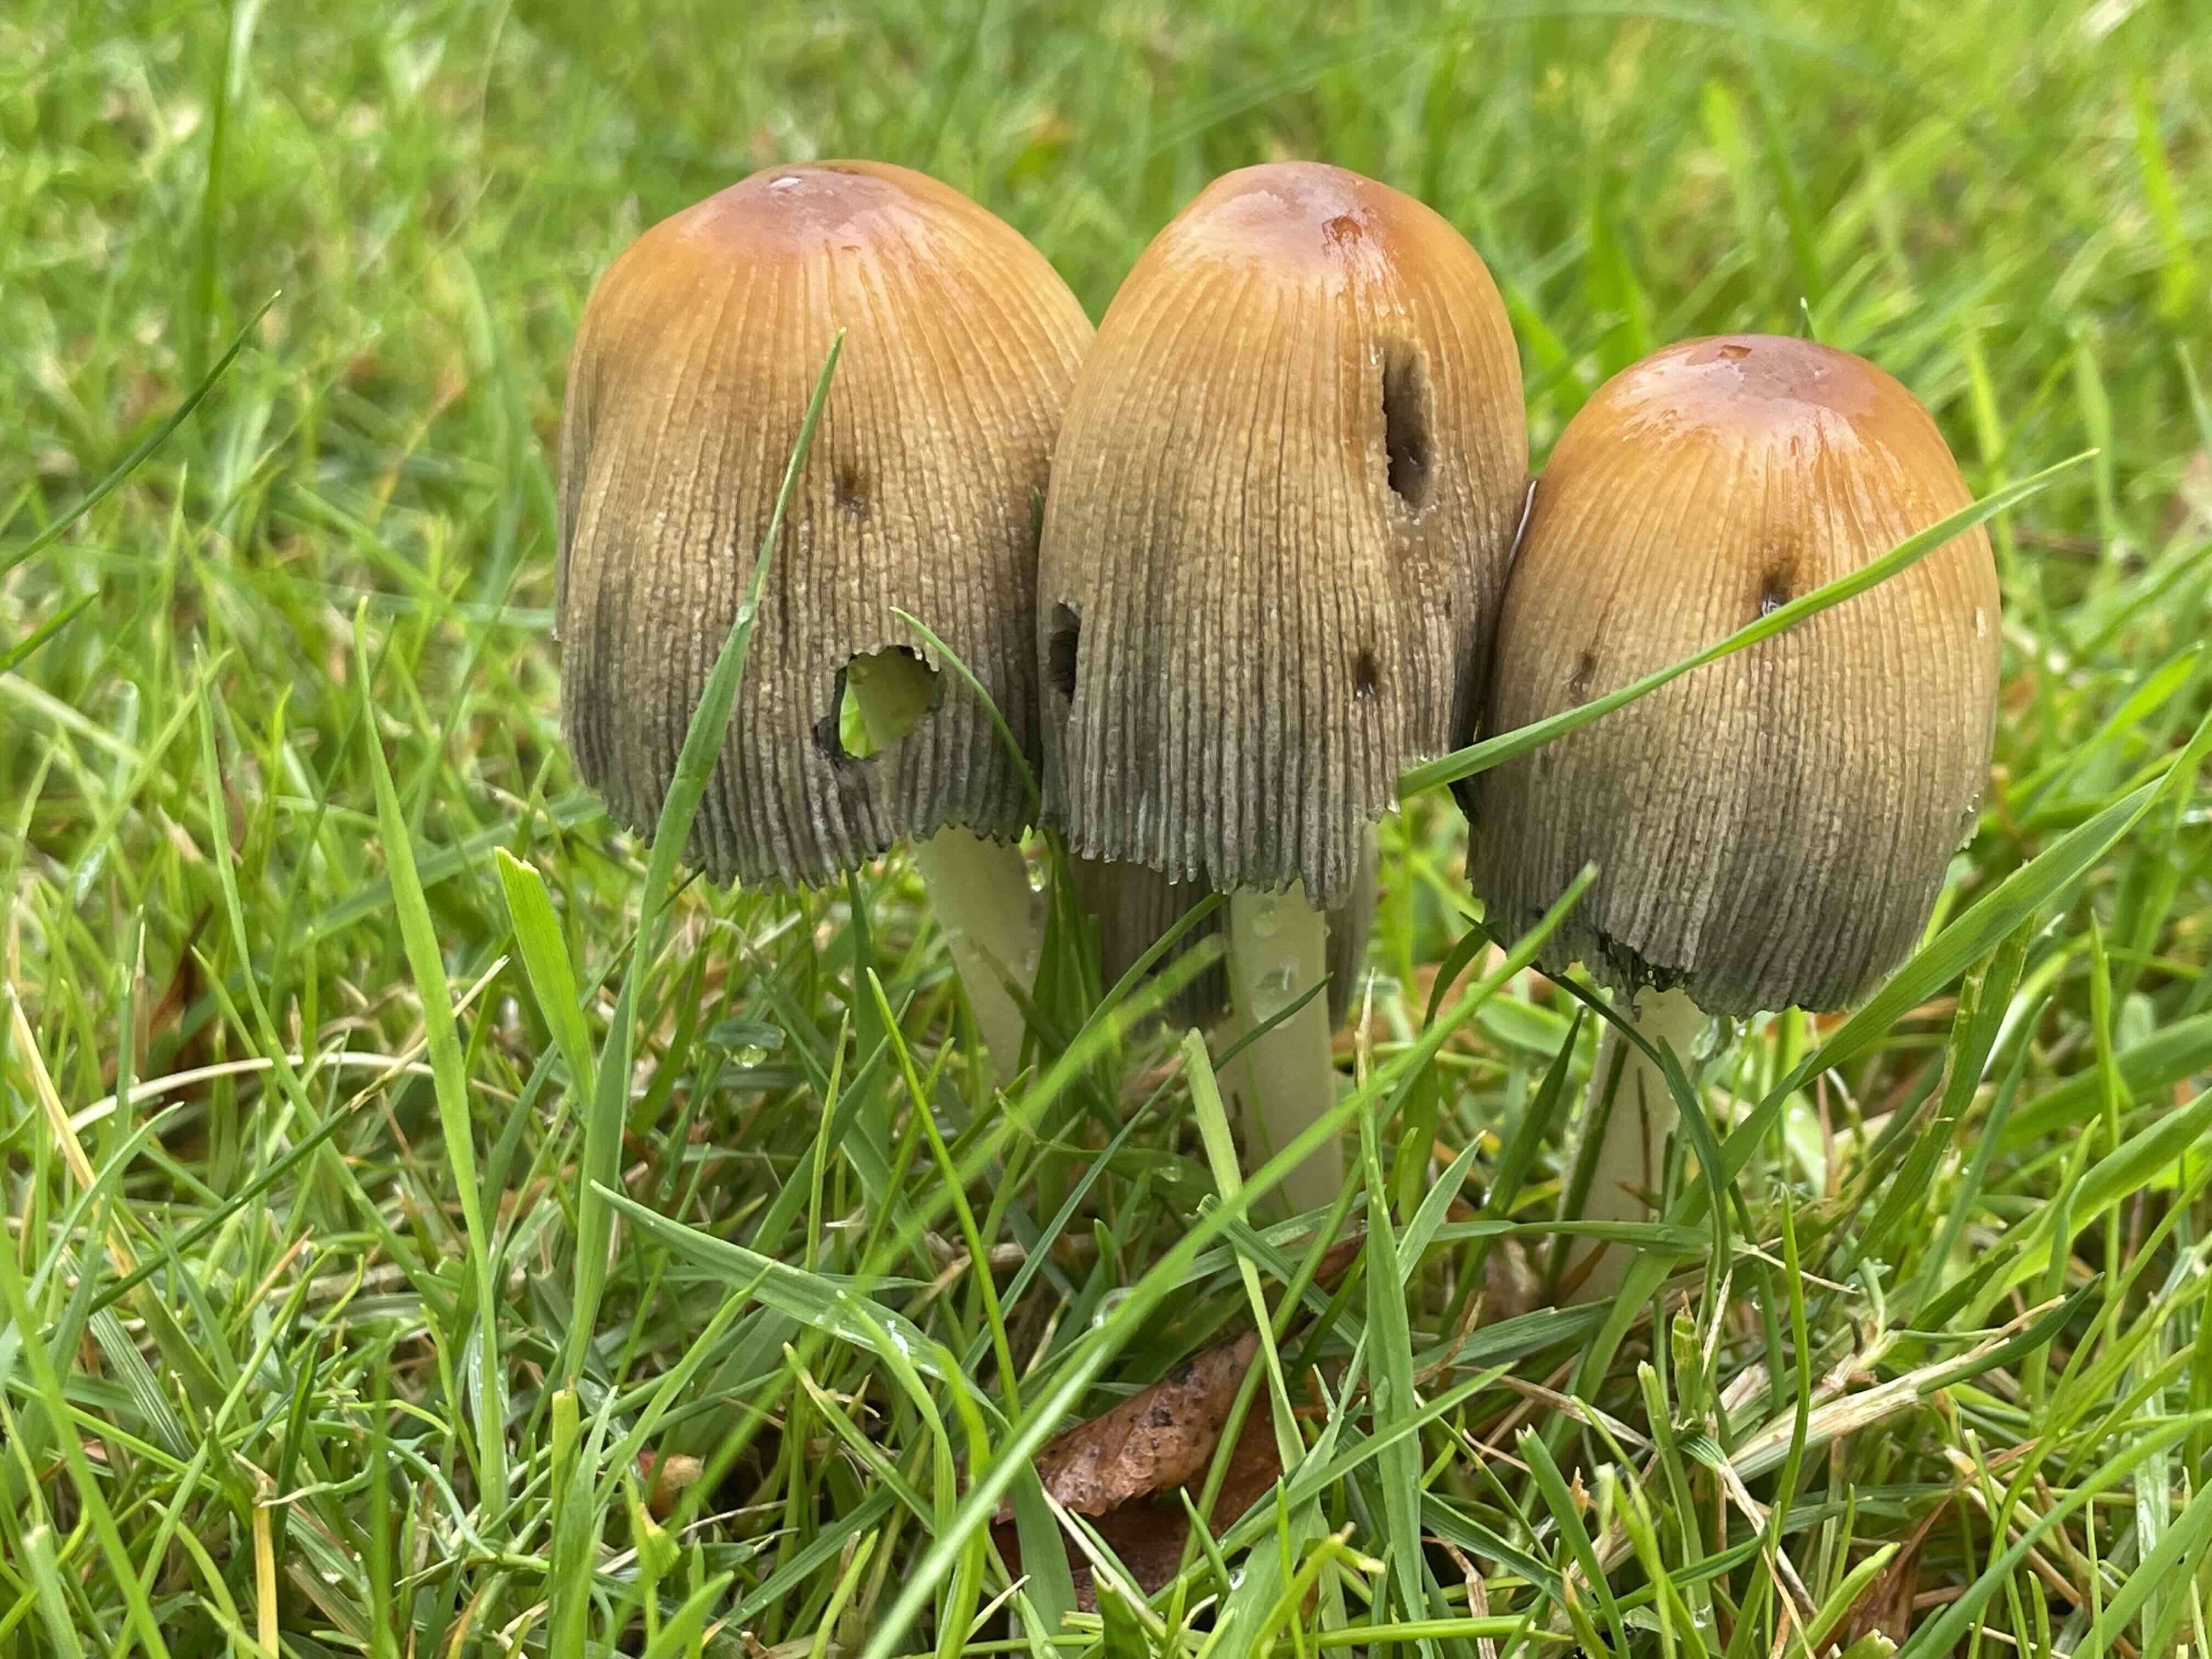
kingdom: Fungi
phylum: Basidiomycota
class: Agaricomycetes
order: Agaricales
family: Psathyrellaceae
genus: Coprinellus
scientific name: Coprinellus micaceus
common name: glimmer-blækhat
